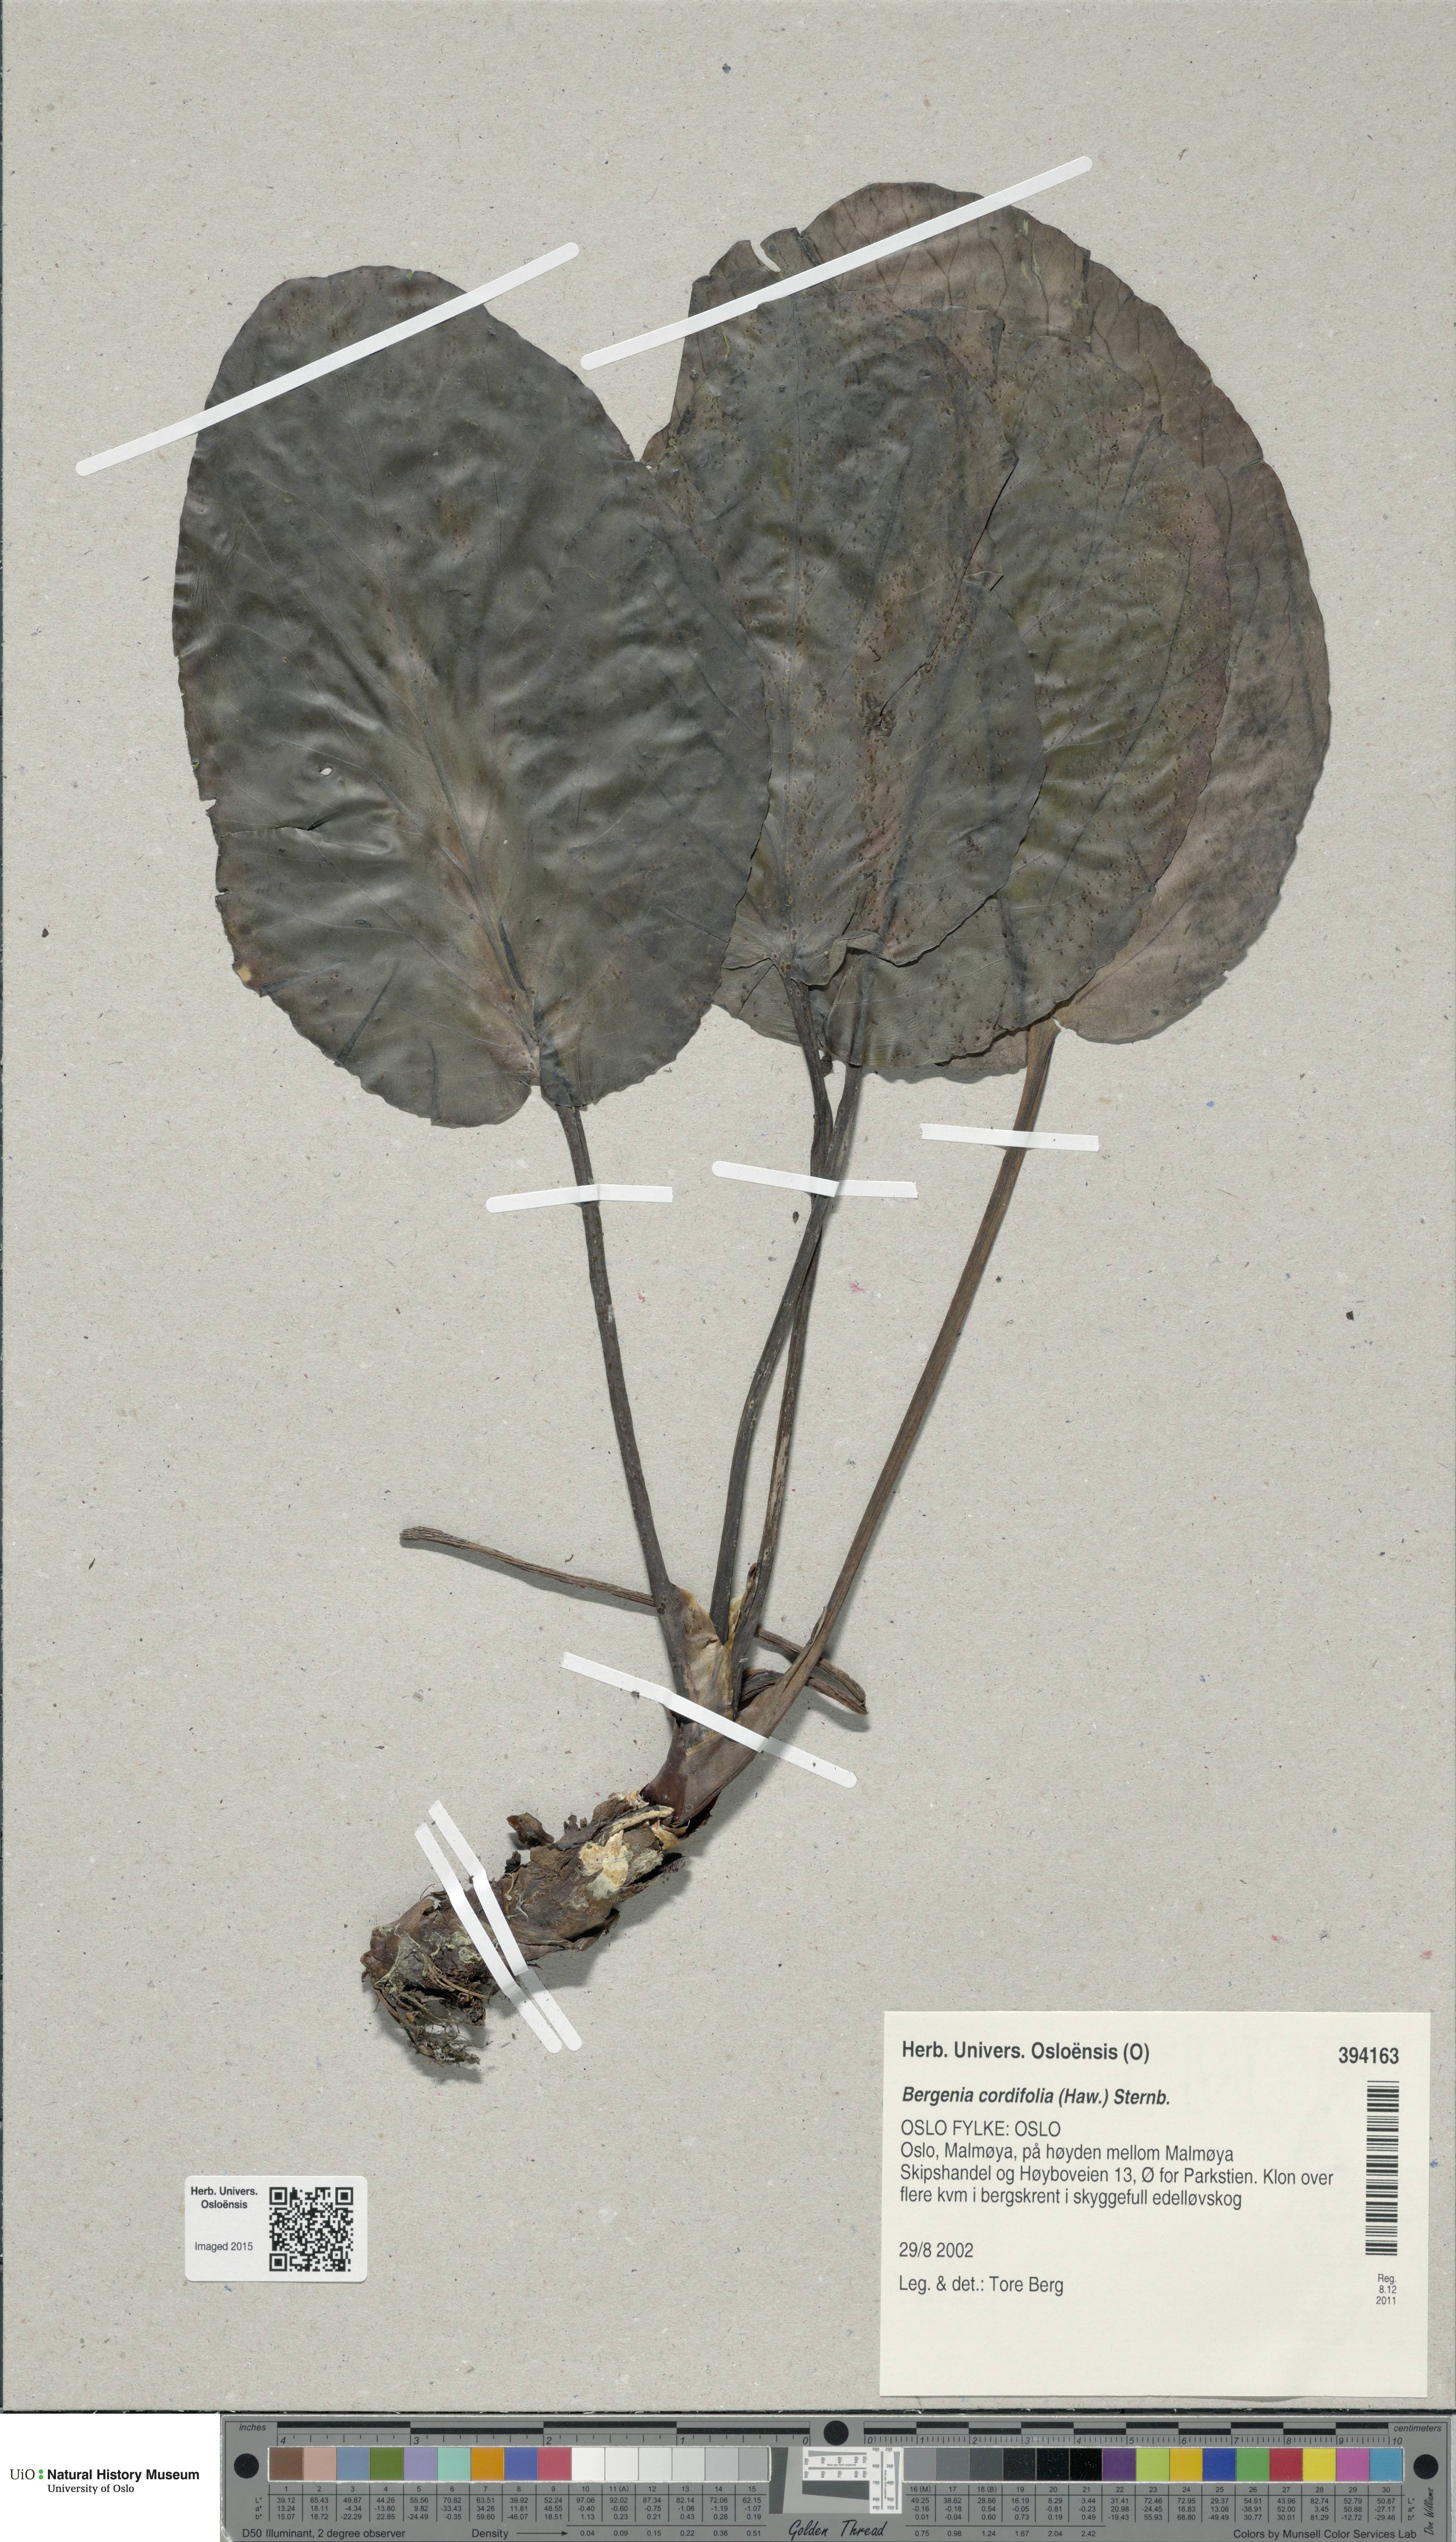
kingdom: Plantae
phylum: Tracheophyta
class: Magnoliopsida
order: Saxifragales
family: Saxifragaceae
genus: Bergenia
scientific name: Bergenia crassifolia
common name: Elephant-ears
